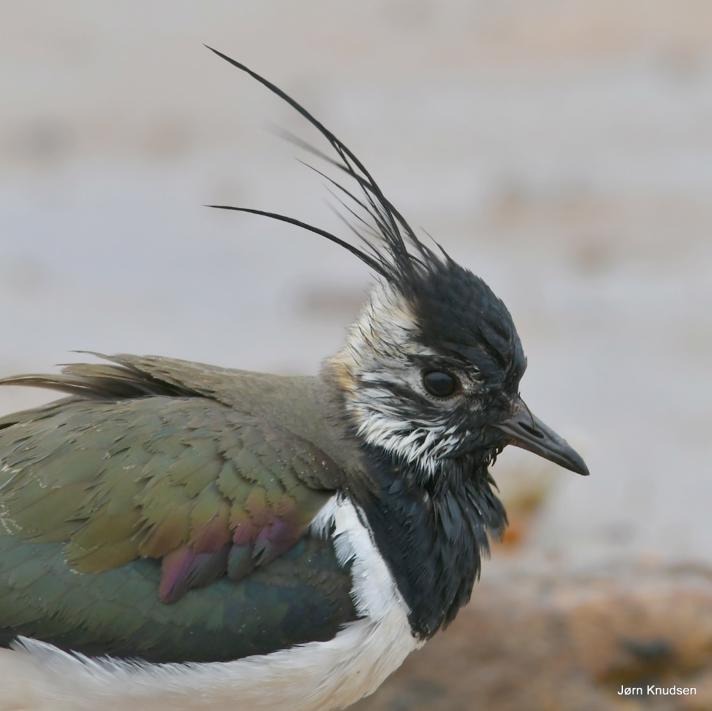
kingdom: Animalia
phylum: Chordata
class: Aves
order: Charadriiformes
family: Charadriidae
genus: Vanellus
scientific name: Vanellus vanellus
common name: Vibe
